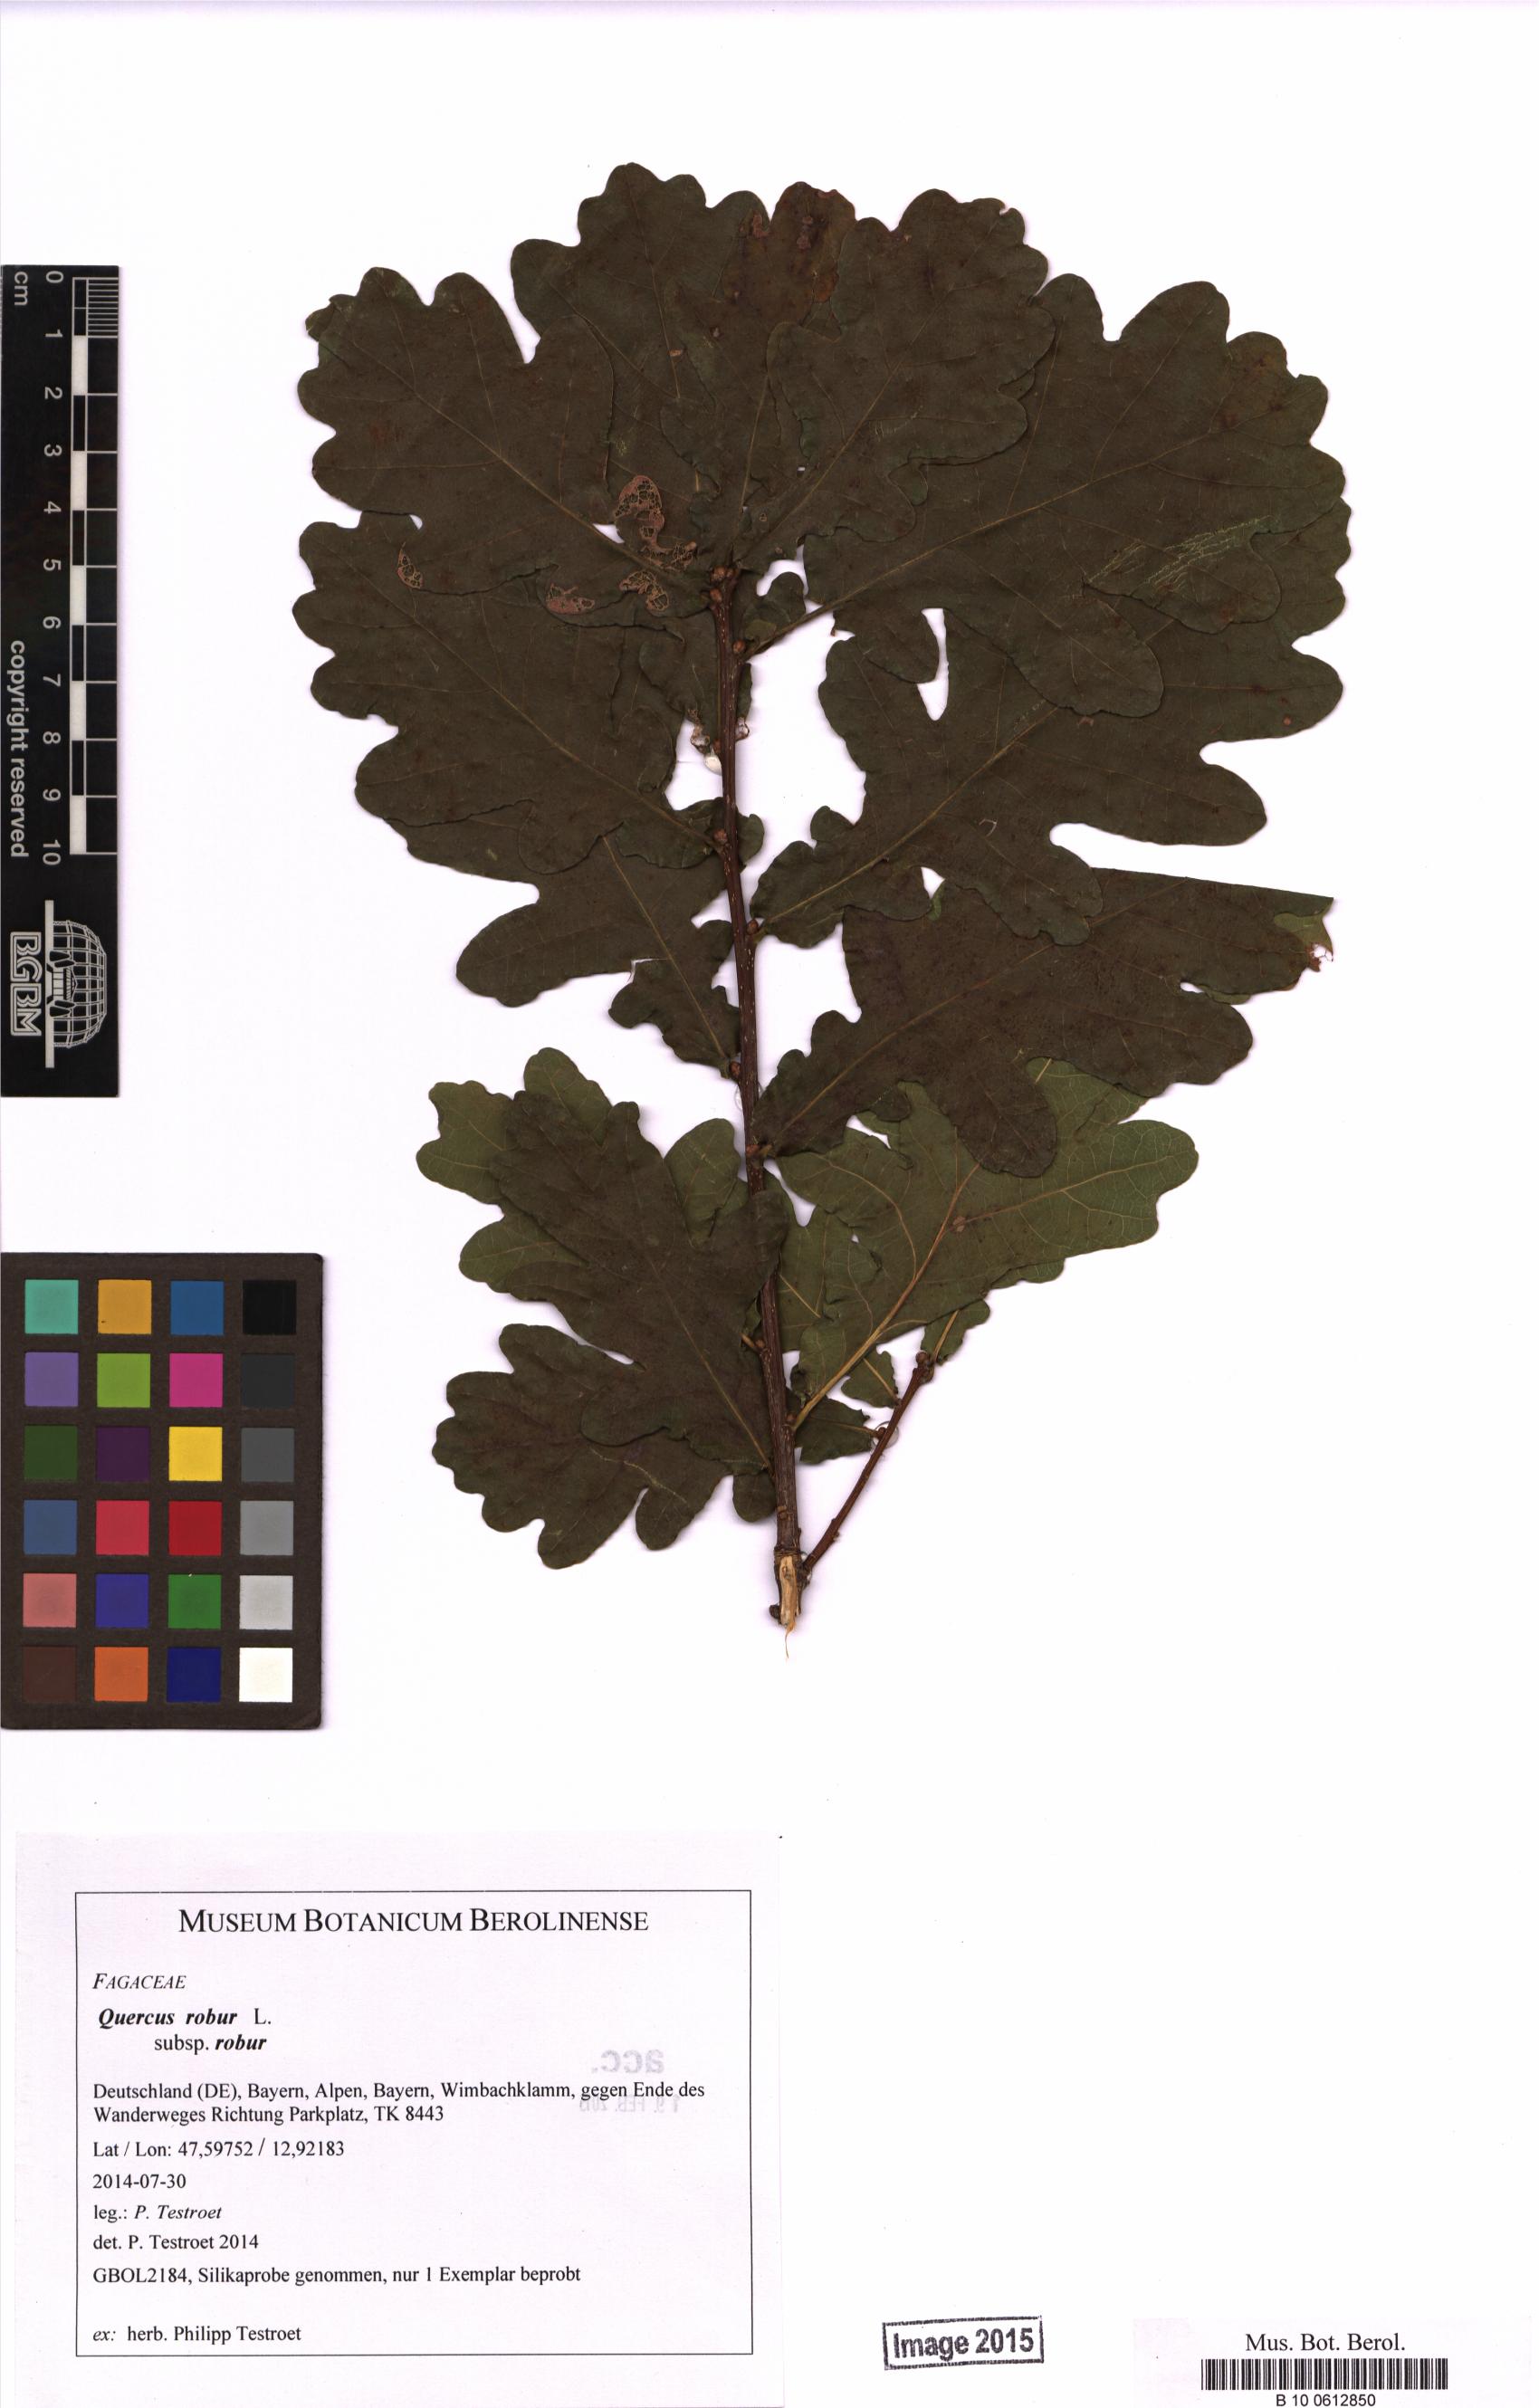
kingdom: Plantae
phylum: Tracheophyta
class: Magnoliopsida
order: Fagales
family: Fagaceae
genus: Quercus
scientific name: Quercus robur
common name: Pedunculate oak
